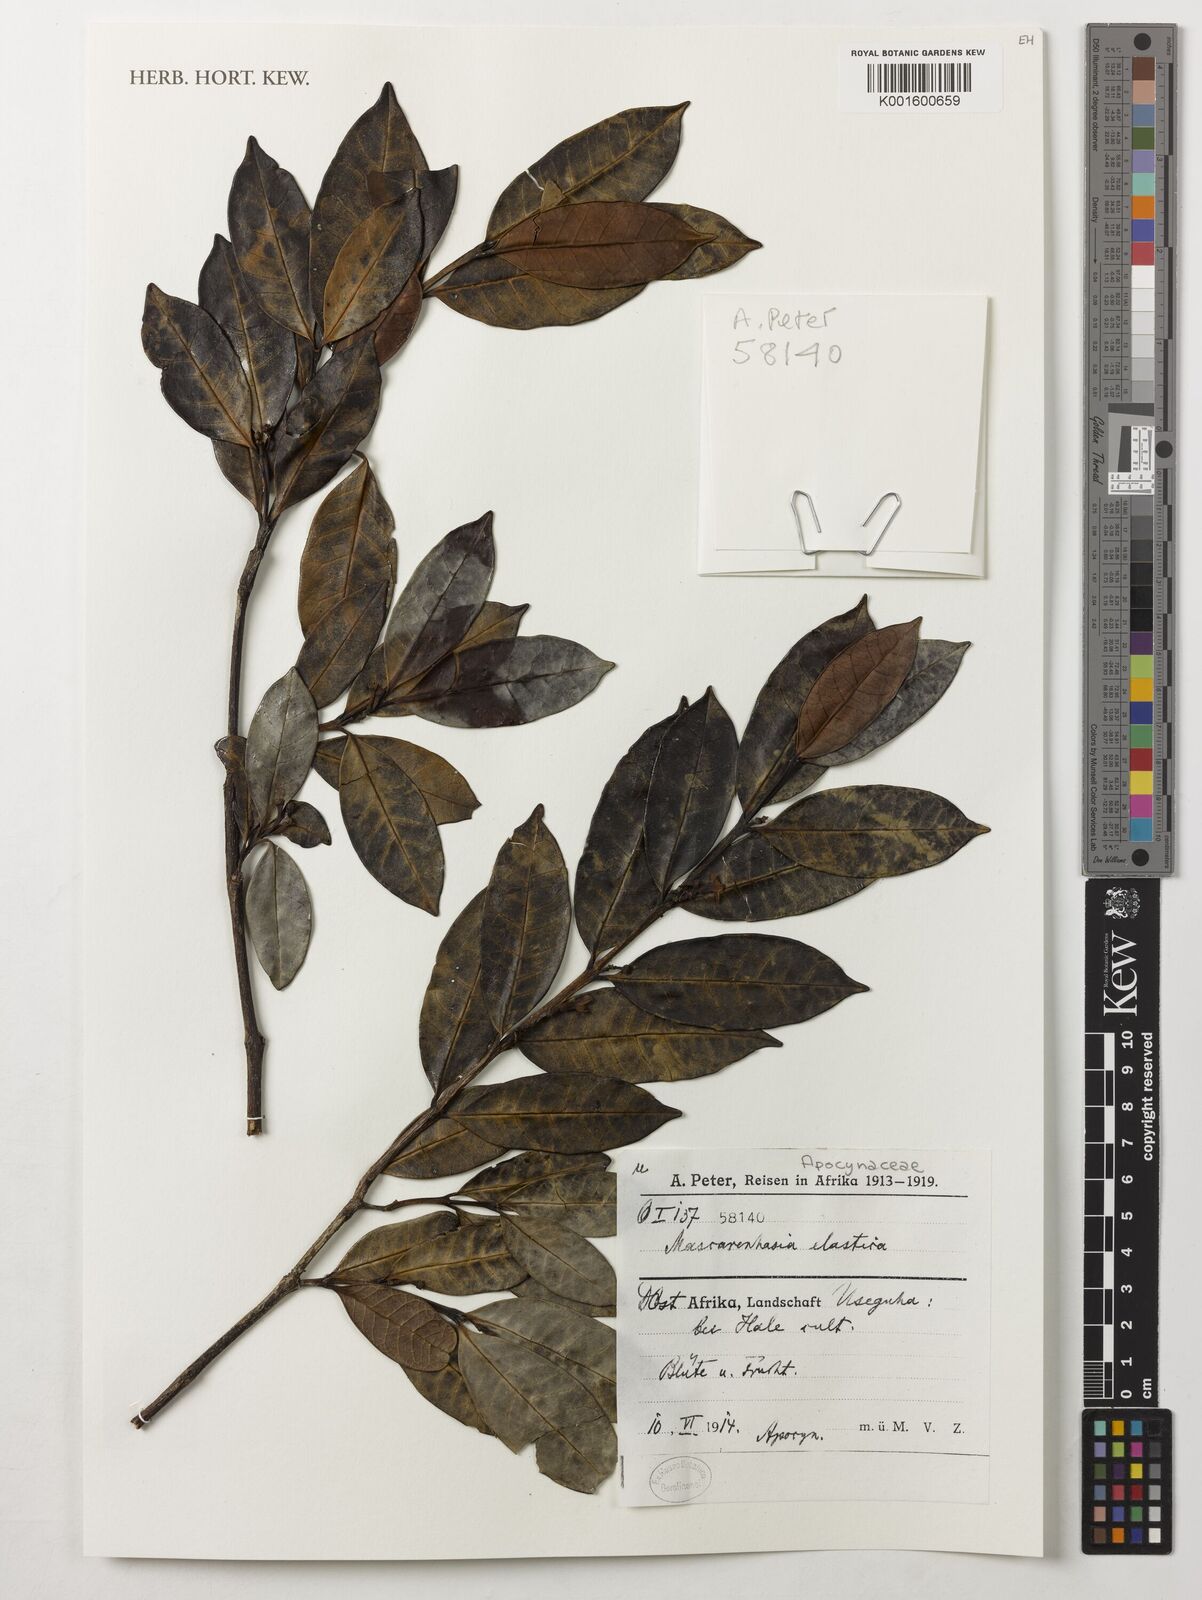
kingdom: Plantae
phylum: Tracheophyta
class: Magnoliopsida
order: Gentianales
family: Apocynaceae
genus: Mascarenhasia
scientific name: Mascarenhasia arborescens
